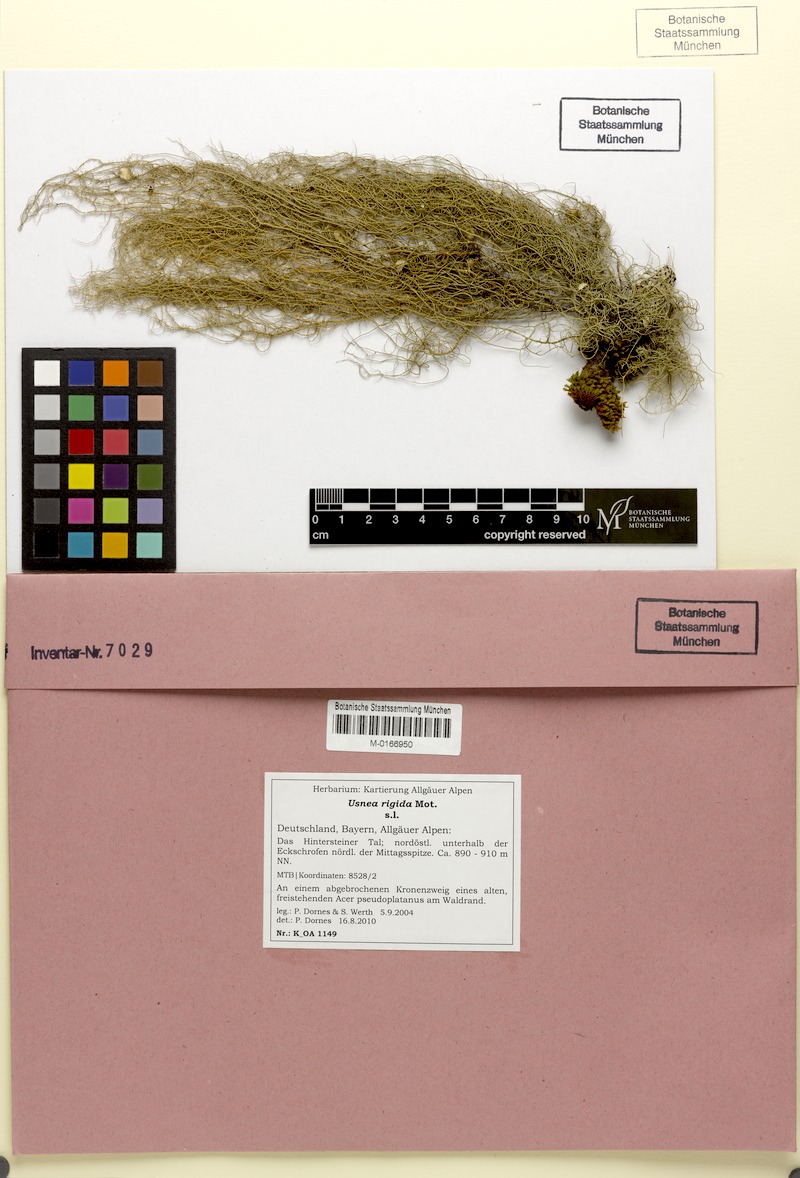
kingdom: Fungi
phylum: Ascomycota
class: Lecanoromycetes
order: Lecanorales
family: Parmeliaceae
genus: Usnea
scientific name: Usnea quasirigida
